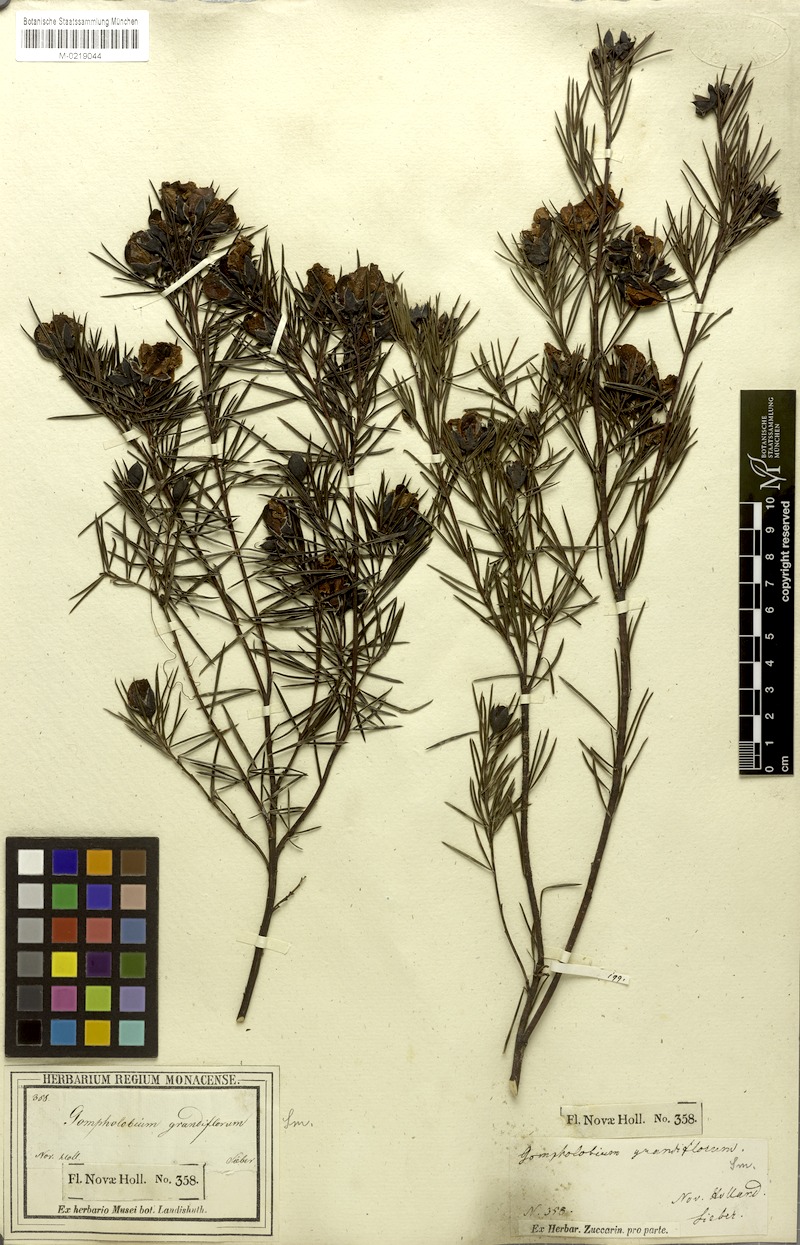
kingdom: Plantae
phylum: Tracheophyta
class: Magnoliopsida
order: Fabales
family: Fabaceae
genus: Gompholobium
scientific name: Gompholobium grandiflorum
